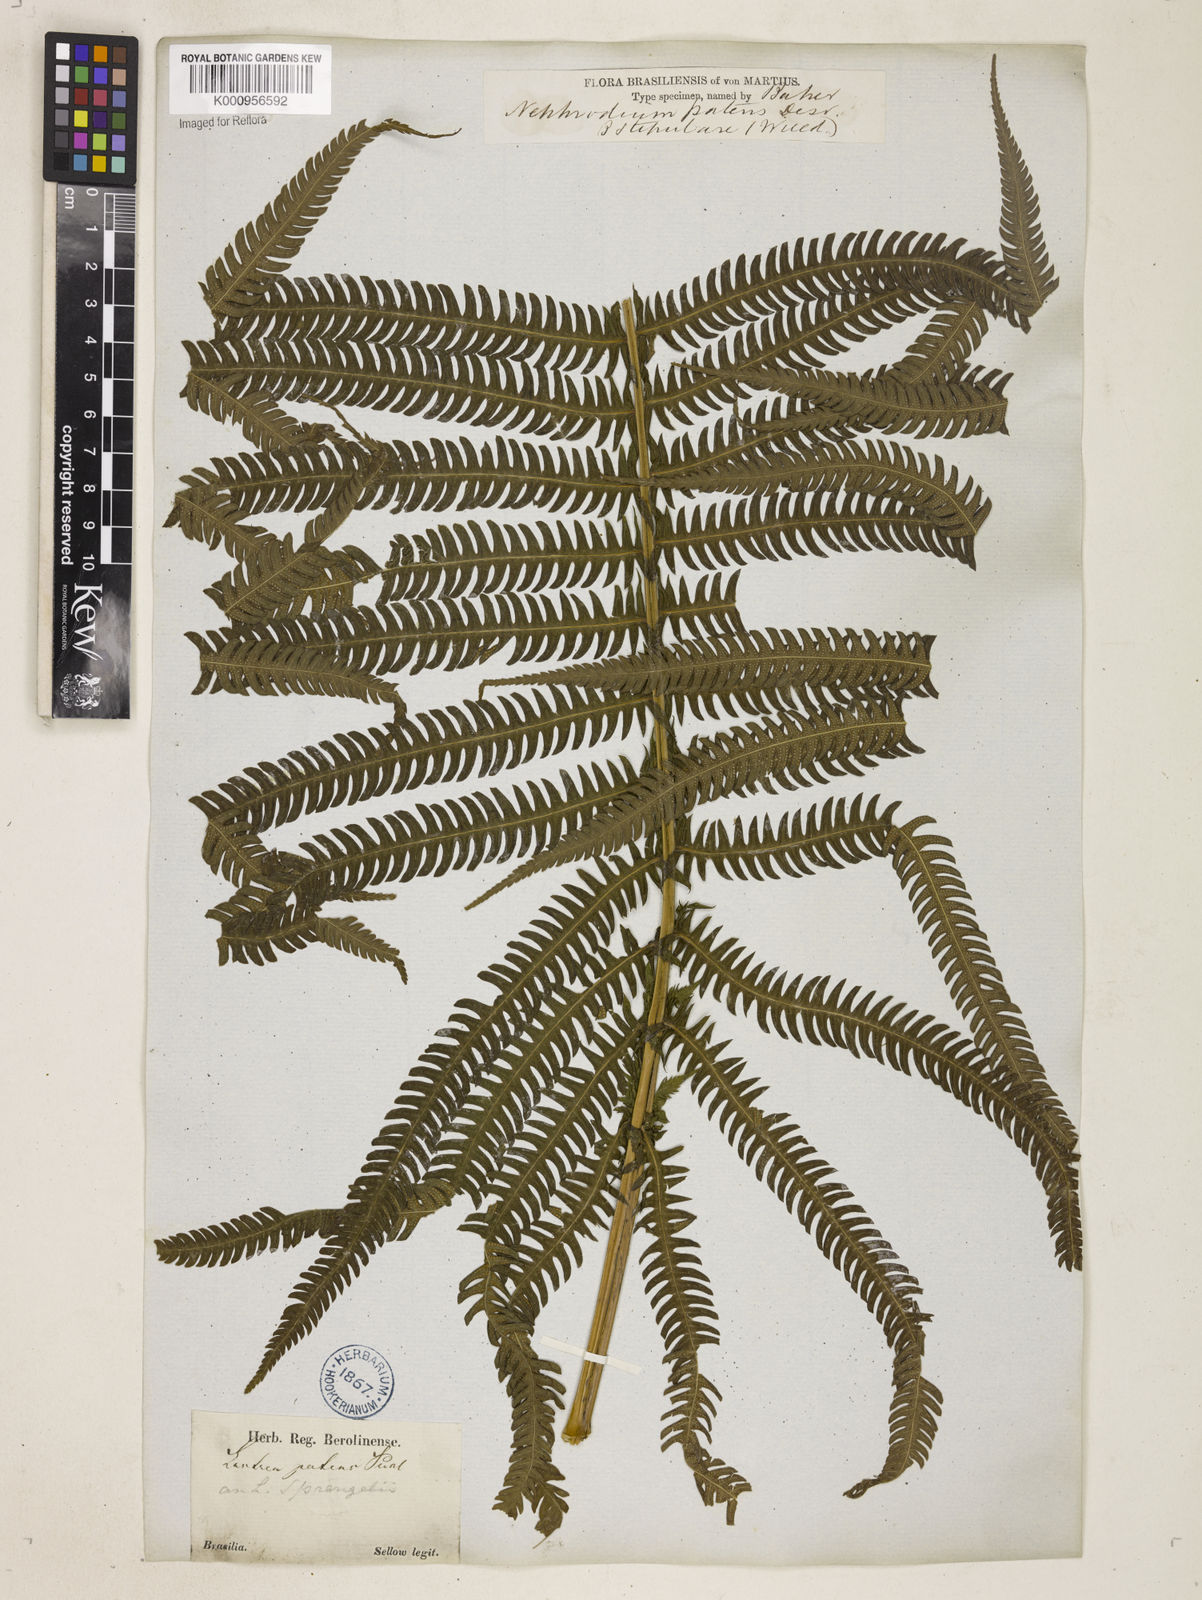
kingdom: Plantae
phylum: Tracheophyta
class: Polypodiopsida
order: Polypodiales
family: Thelypteridaceae
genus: Pelazoneuron
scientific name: Pelazoneuron patens
